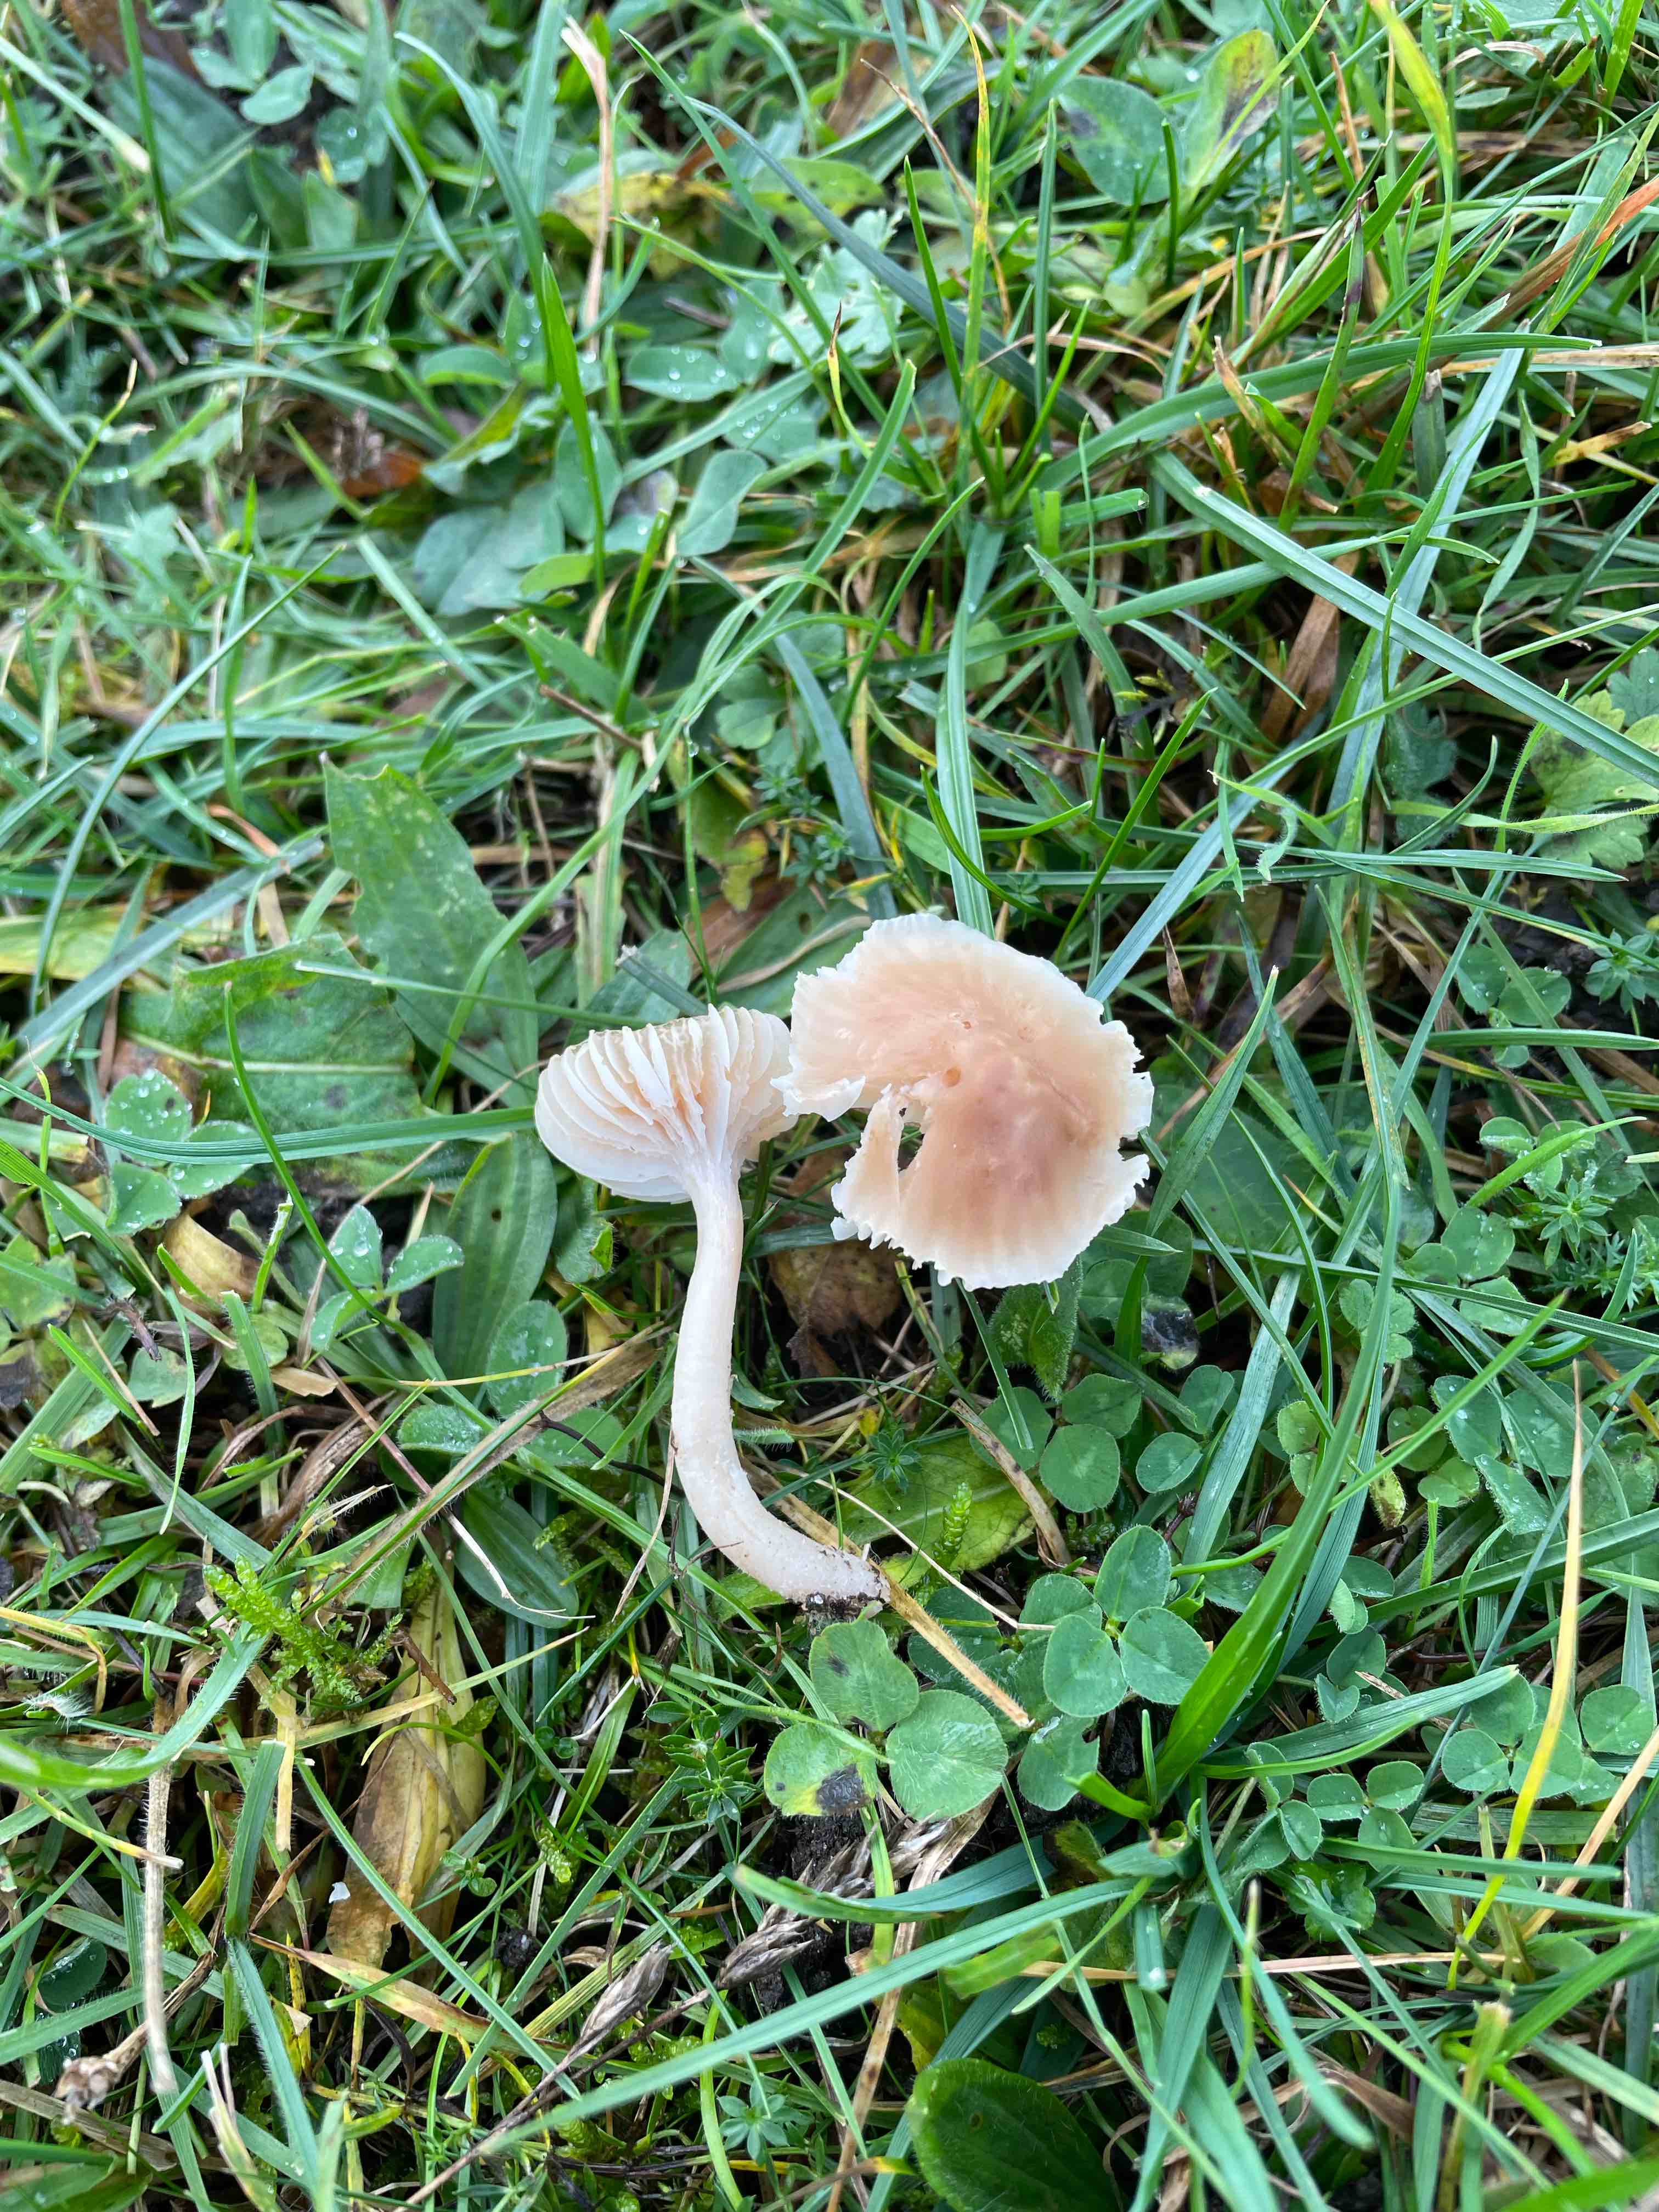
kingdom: Fungi
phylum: Basidiomycota
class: Agaricomycetes
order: Agaricales
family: Hygrophoraceae
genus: Cuphophyllus
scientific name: Cuphophyllus colemannianus
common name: rødbrun vokshat
